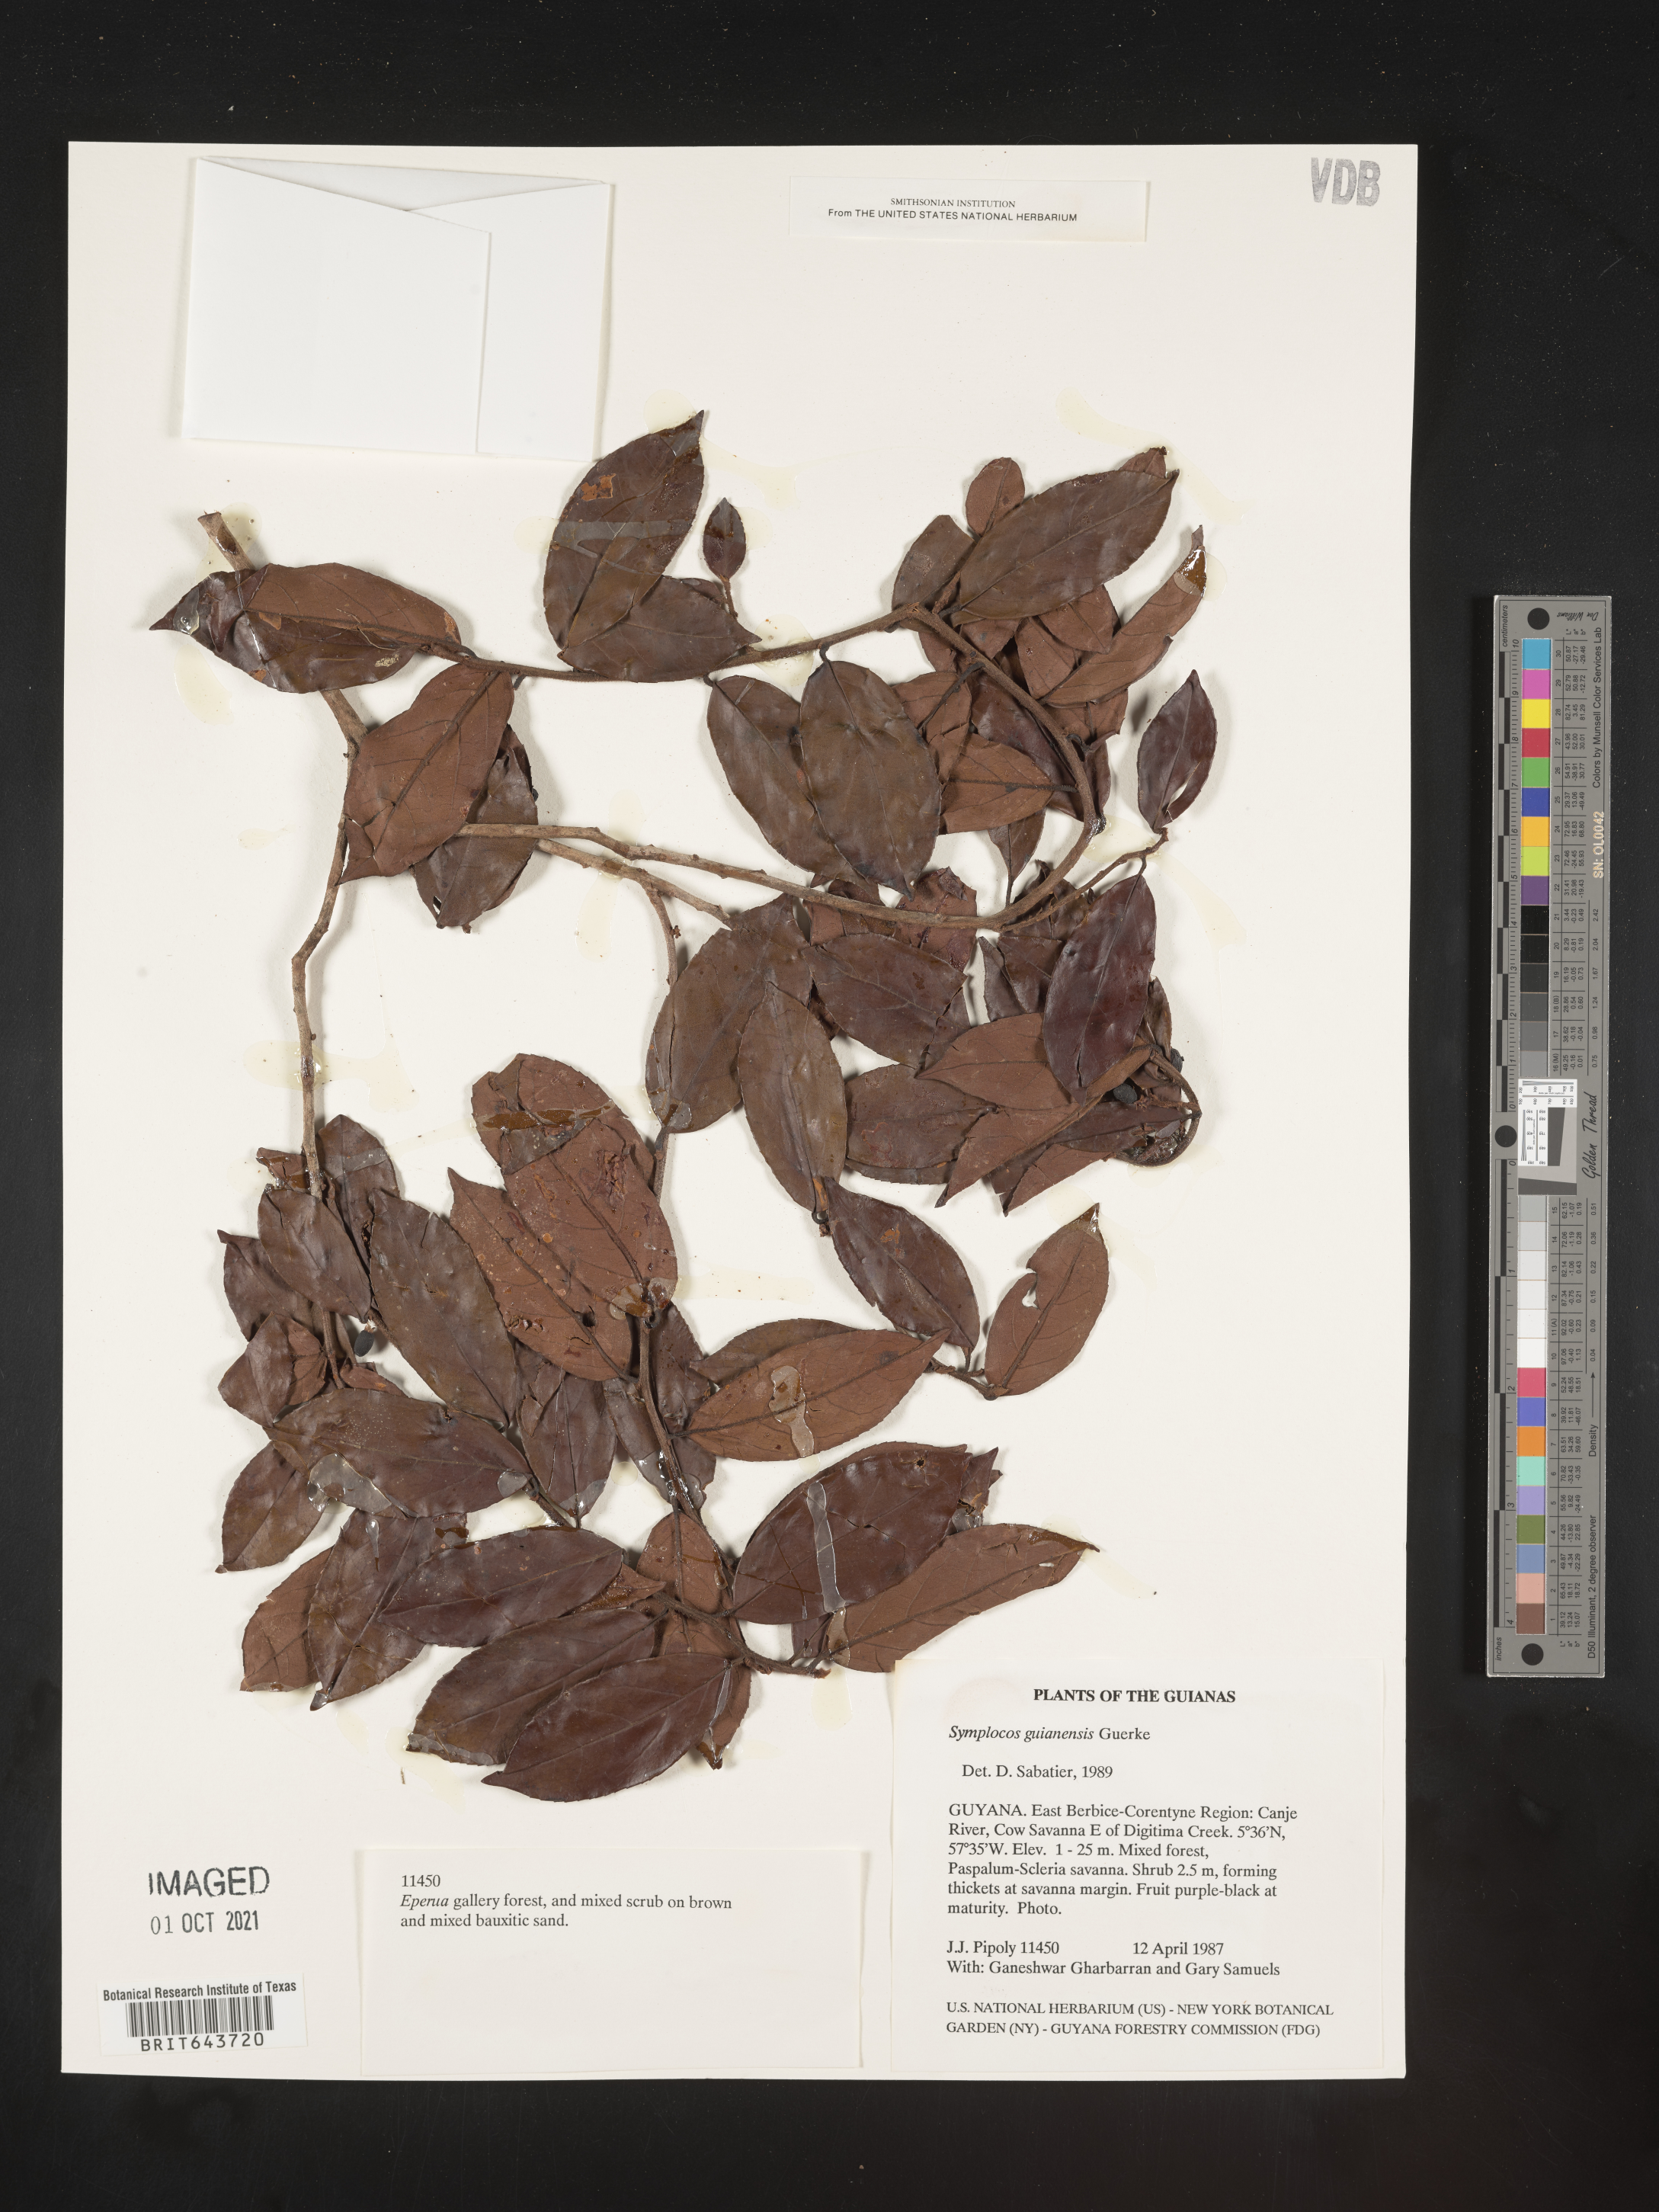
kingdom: Plantae
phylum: Tracheophyta
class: Magnoliopsida
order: Ericales
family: Symplocaceae
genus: Symplocos
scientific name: Symplocos
